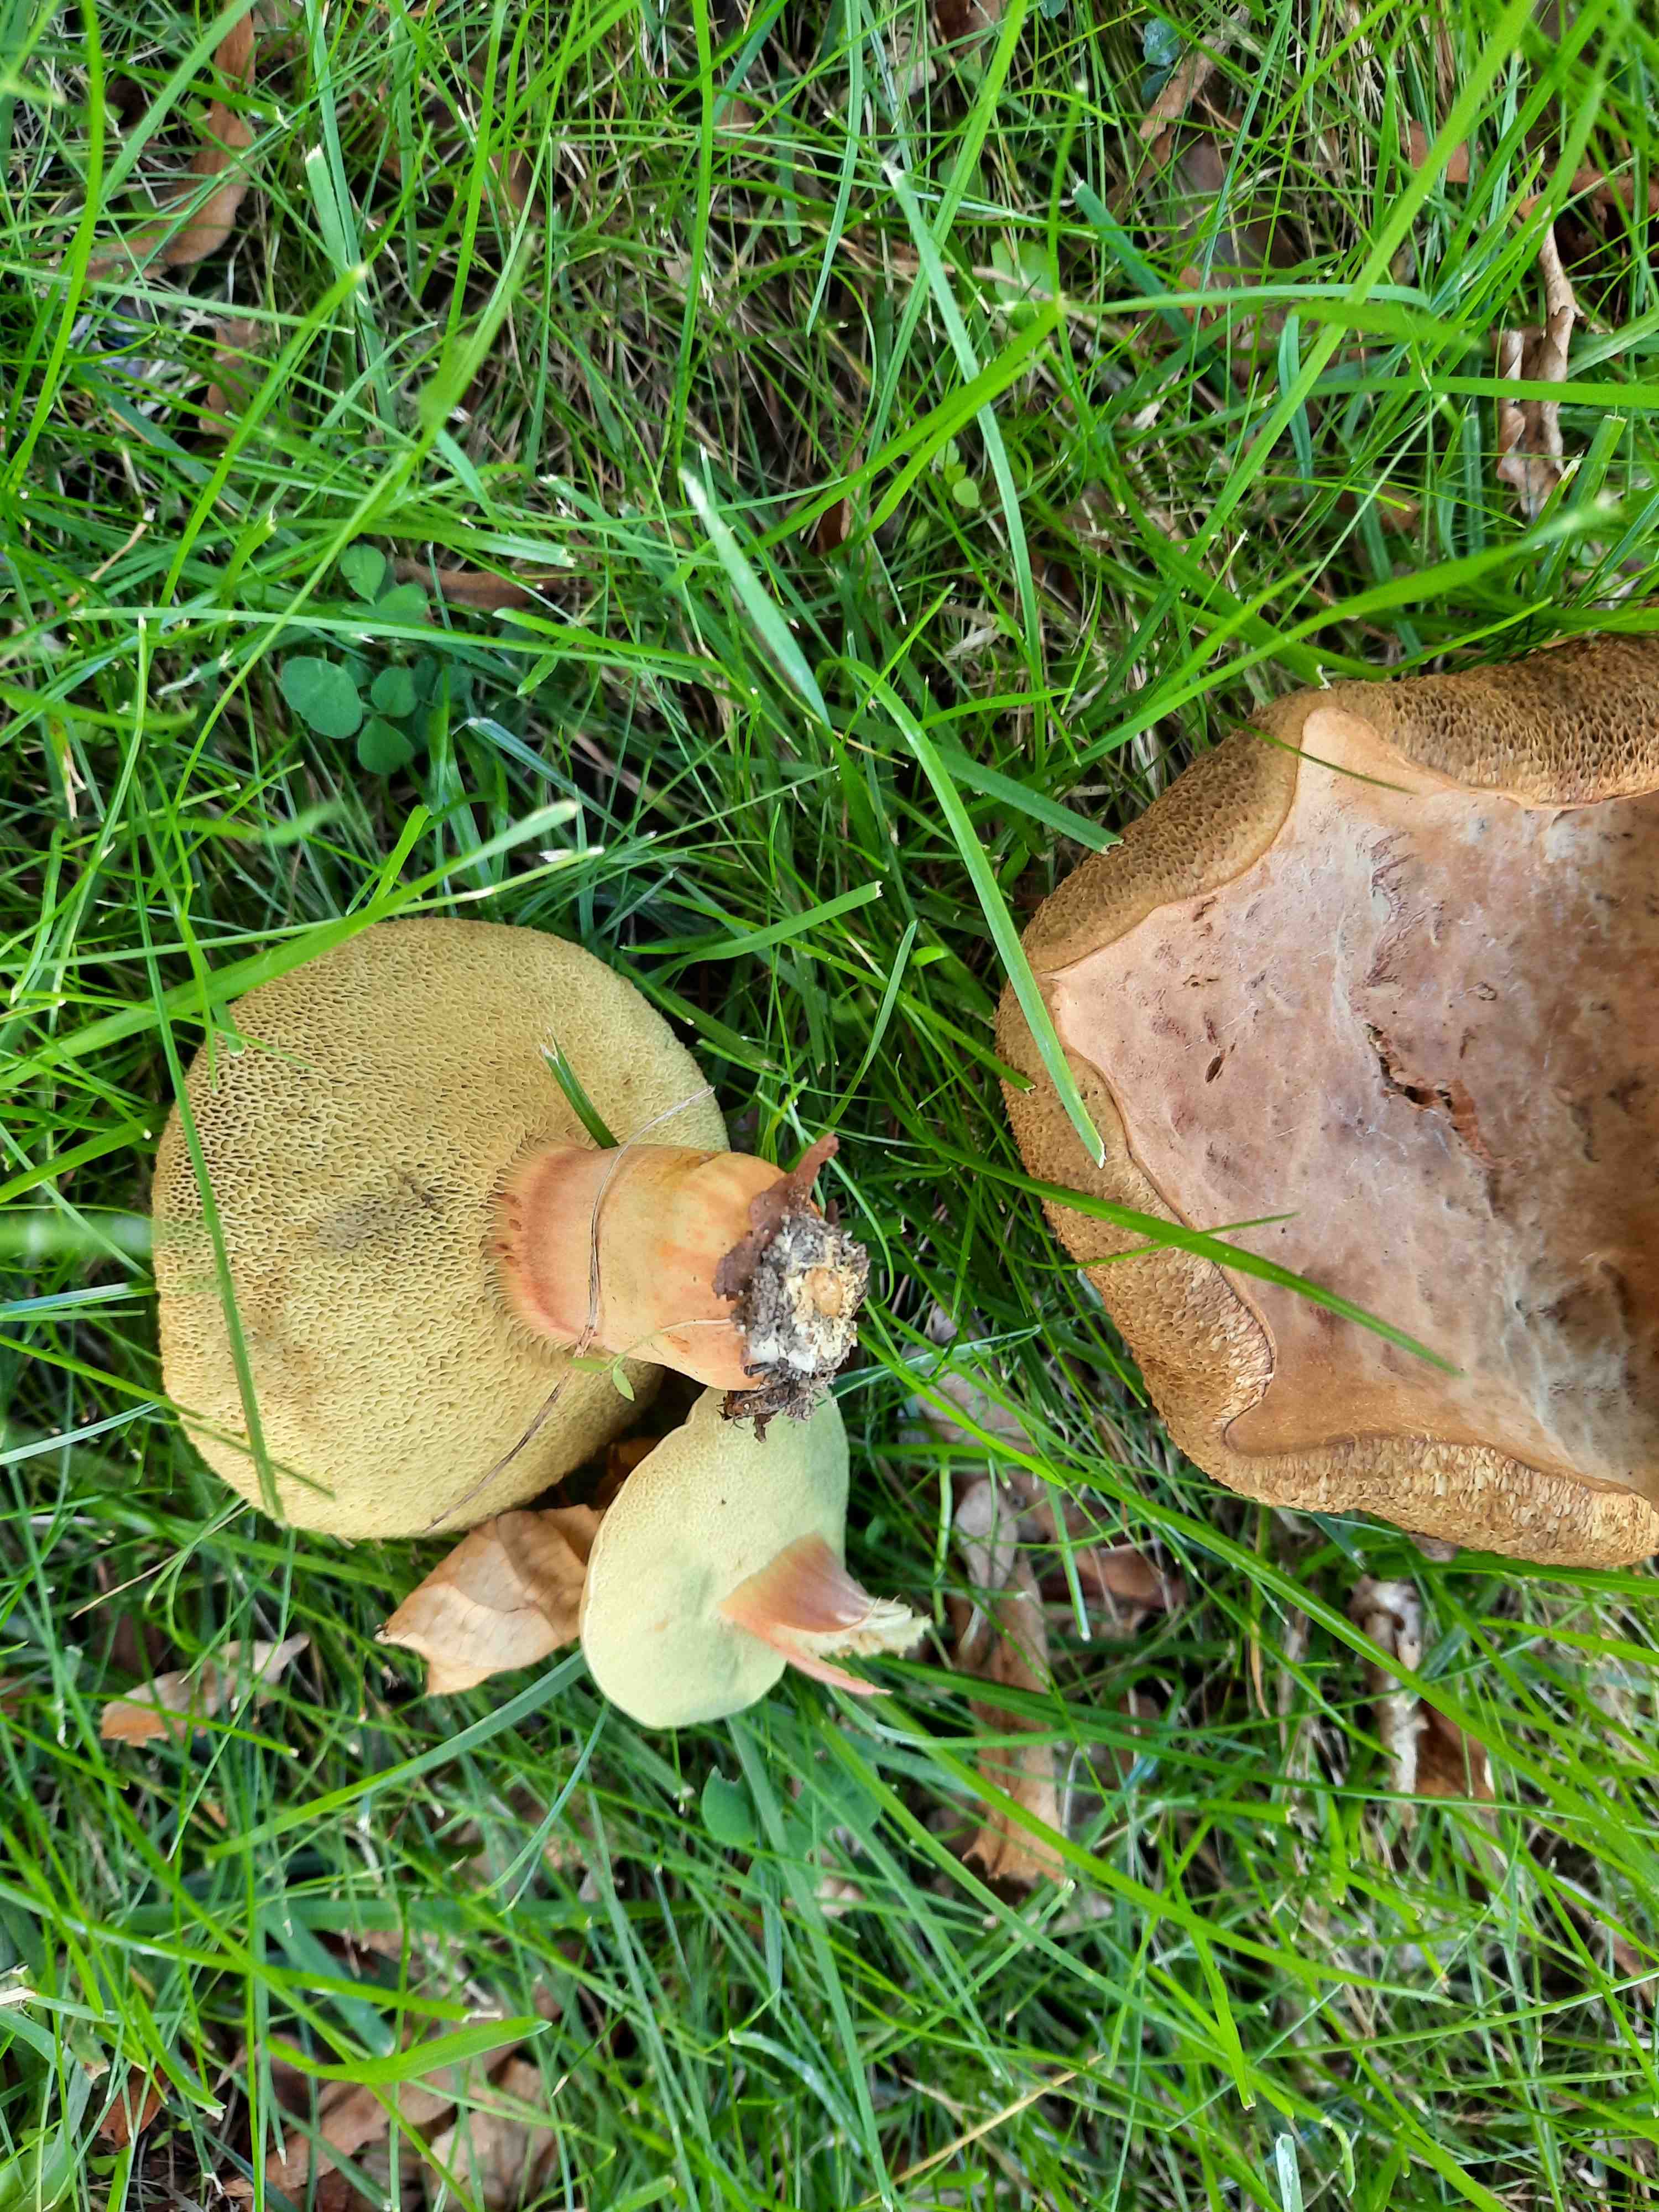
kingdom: Fungi
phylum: Basidiomycota
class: Agaricomycetes
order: Boletales
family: Boletaceae
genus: Hortiboletus
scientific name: Hortiboletus
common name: dværgrørhat
